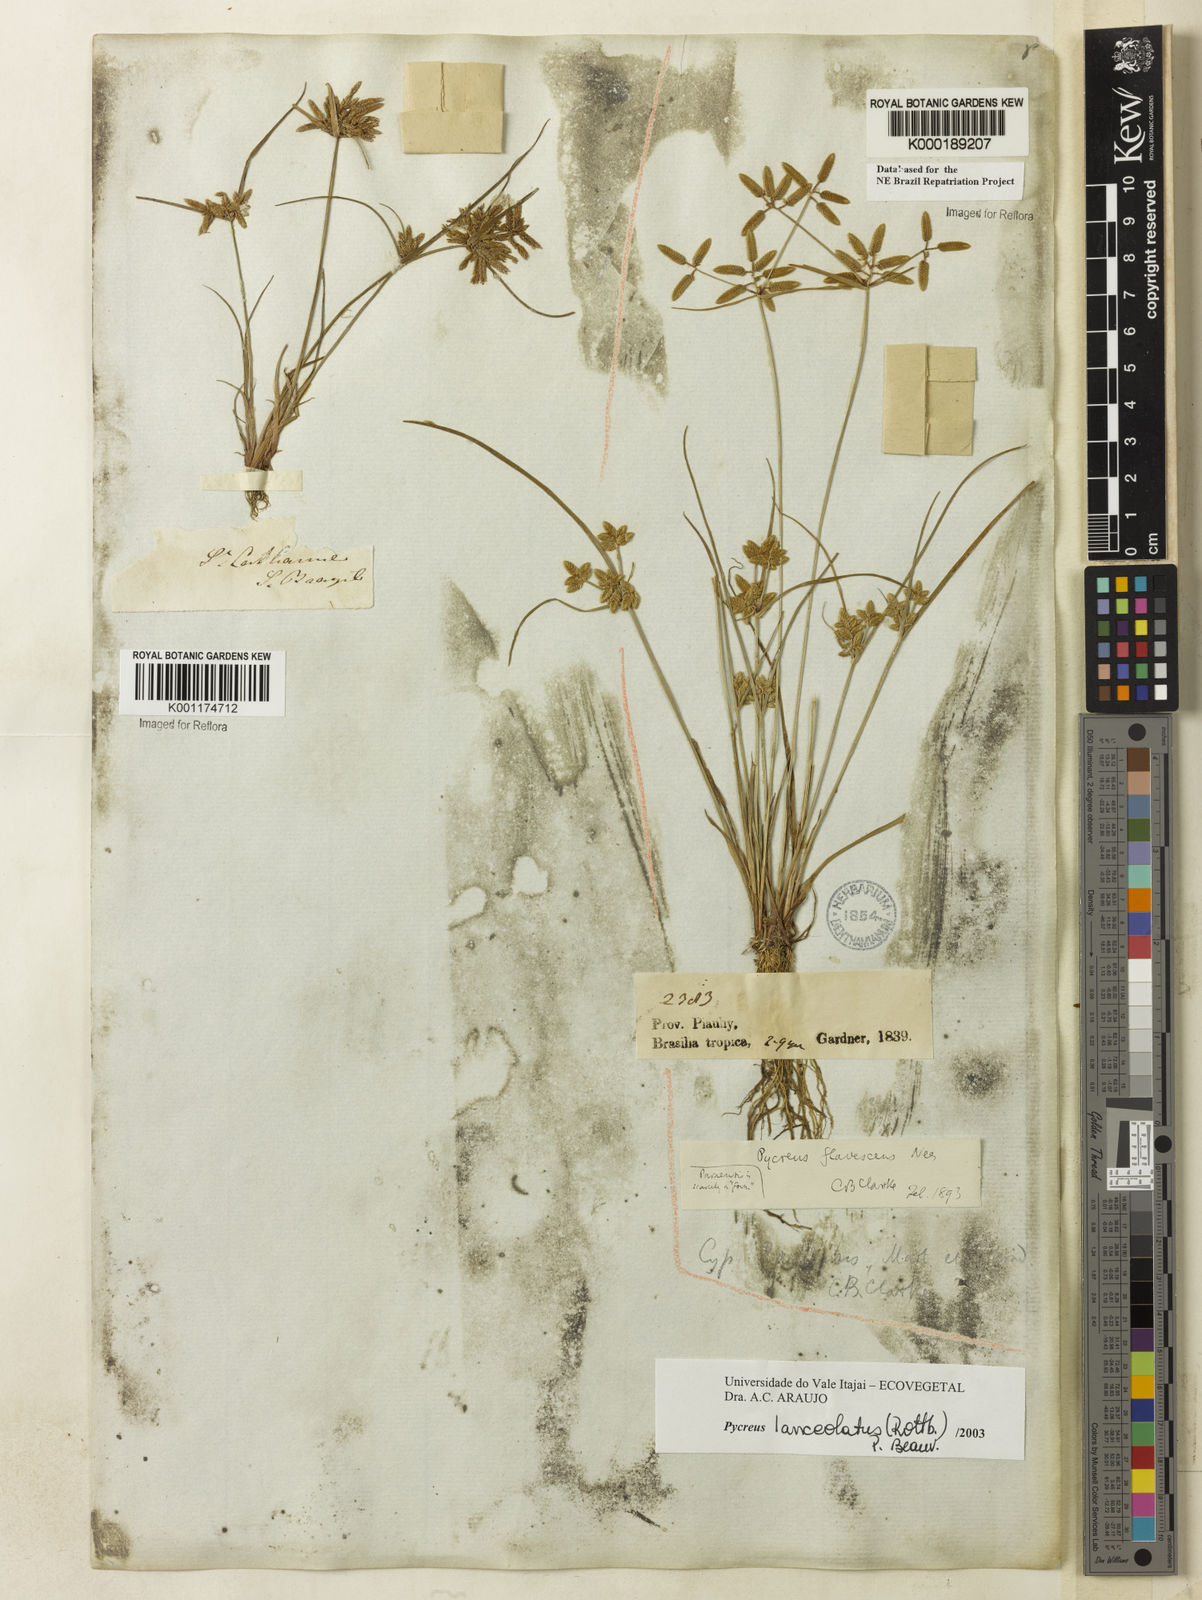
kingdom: Plantae
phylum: Tracheophyta
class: Liliopsida
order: Poales
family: Cyperaceae
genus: Cyperus
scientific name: Cyperus flavescens
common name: Yellow galingale
